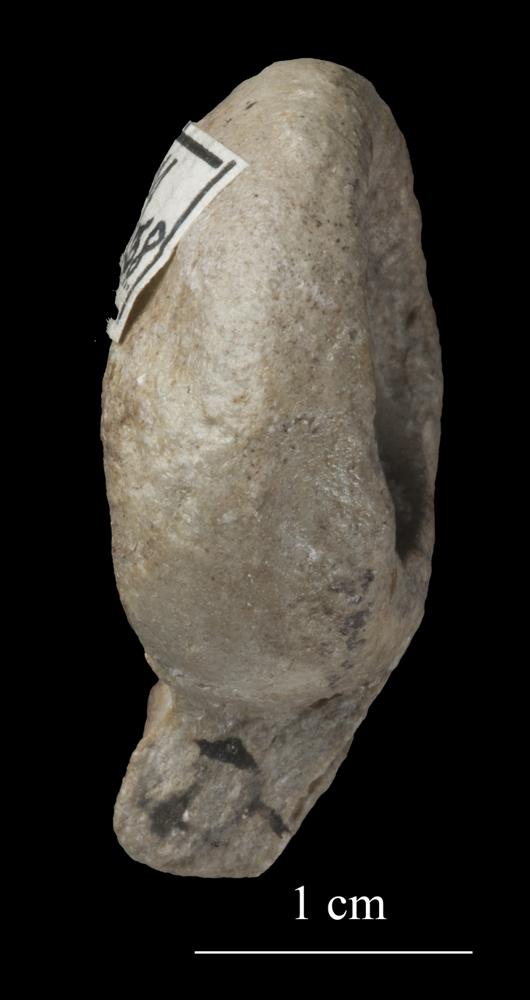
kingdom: Animalia
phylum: Mollusca
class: Gastropoda
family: Bucaniidae
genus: Megalomphala
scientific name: Megalomphala
